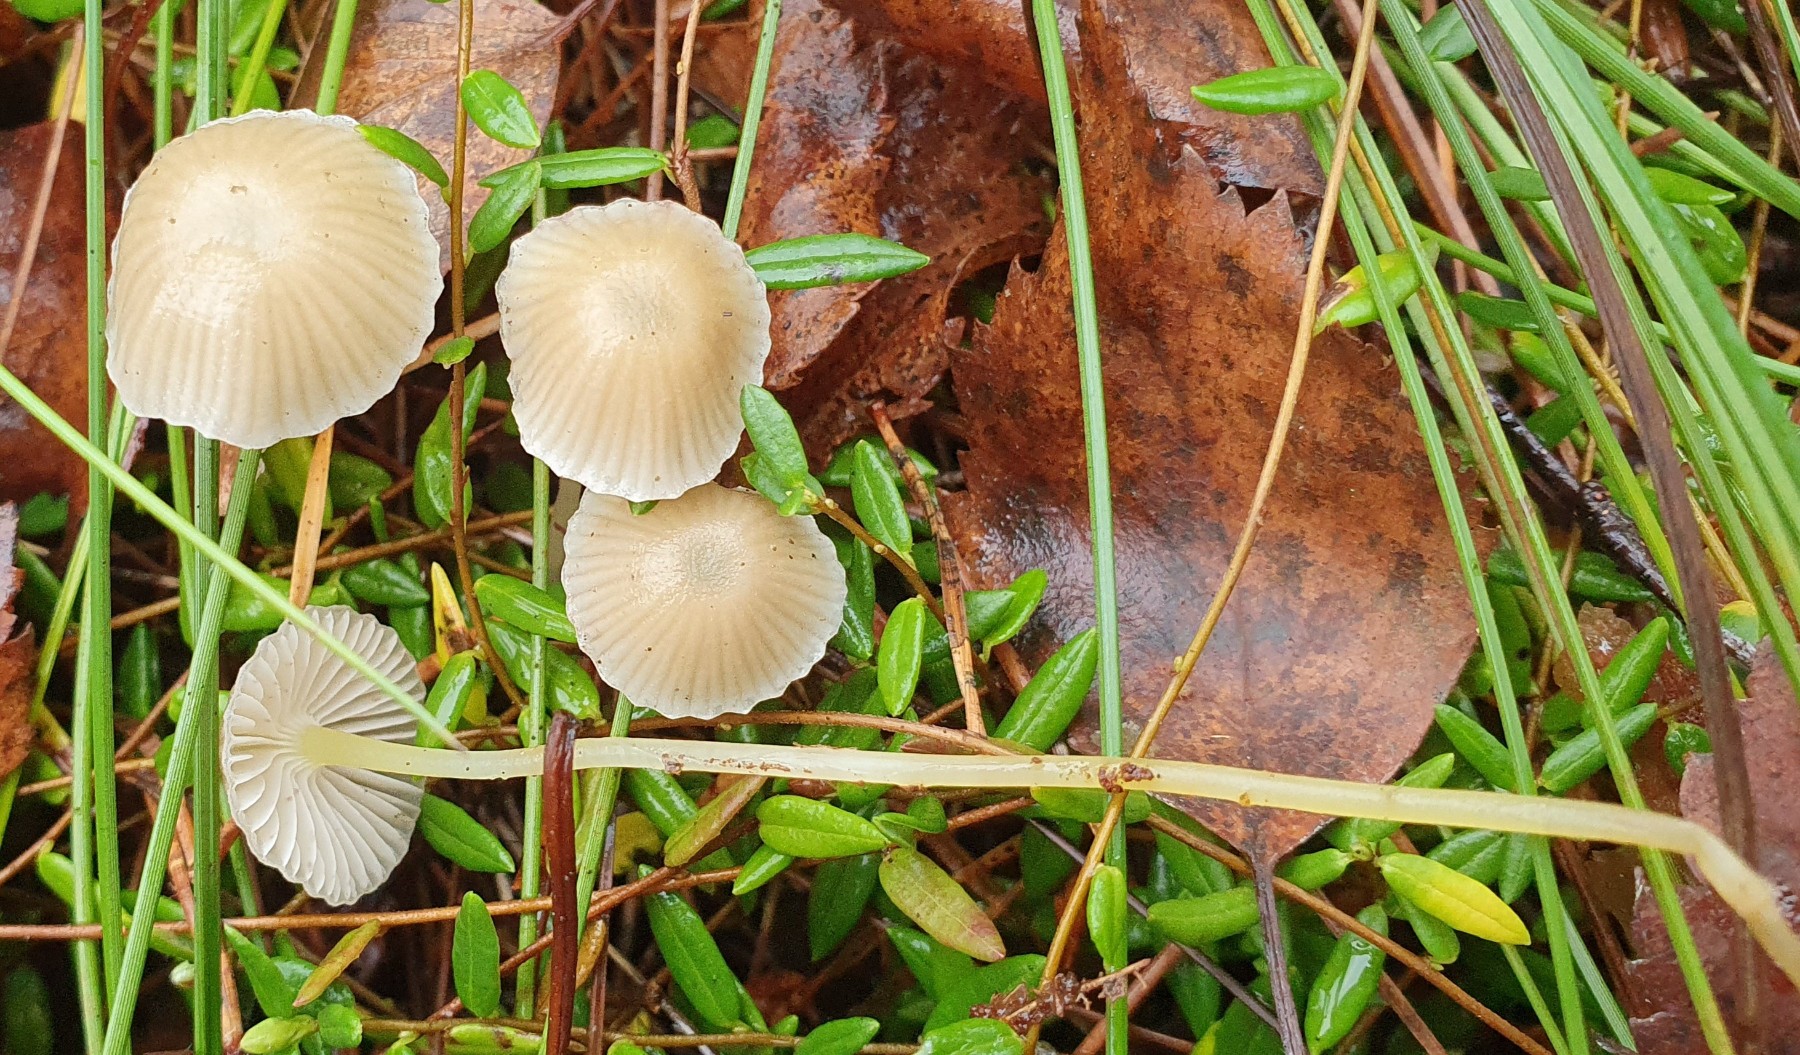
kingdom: Fungi
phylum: Basidiomycota
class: Agaricomycetes
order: Agaricales
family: Mycenaceae
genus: Mycena
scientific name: Mycena epipterygia
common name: gulstokket huesvamp
